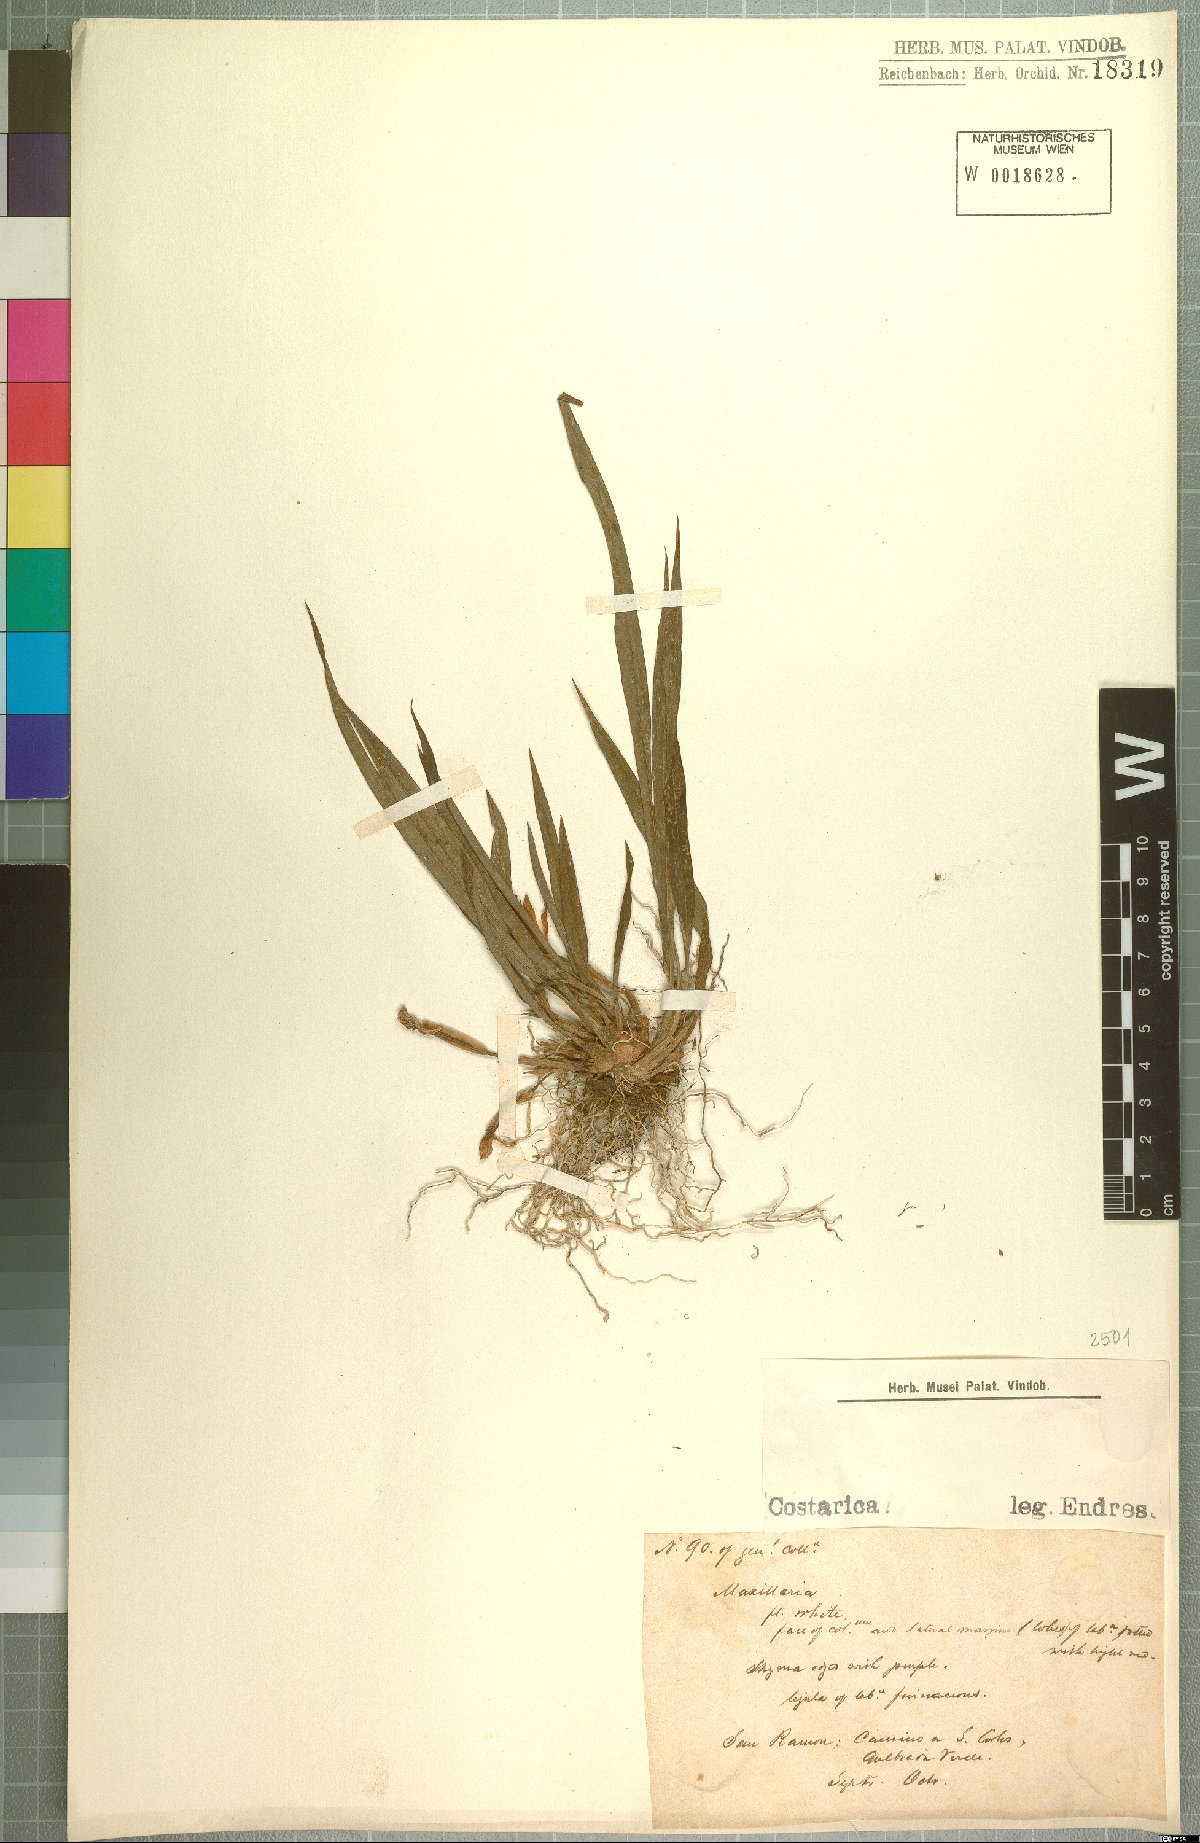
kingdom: Plantae
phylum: Tracheophyta
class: Liliopsida
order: Asparagales
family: Orchidaceae
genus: Maxillaria
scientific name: Maxillaria
